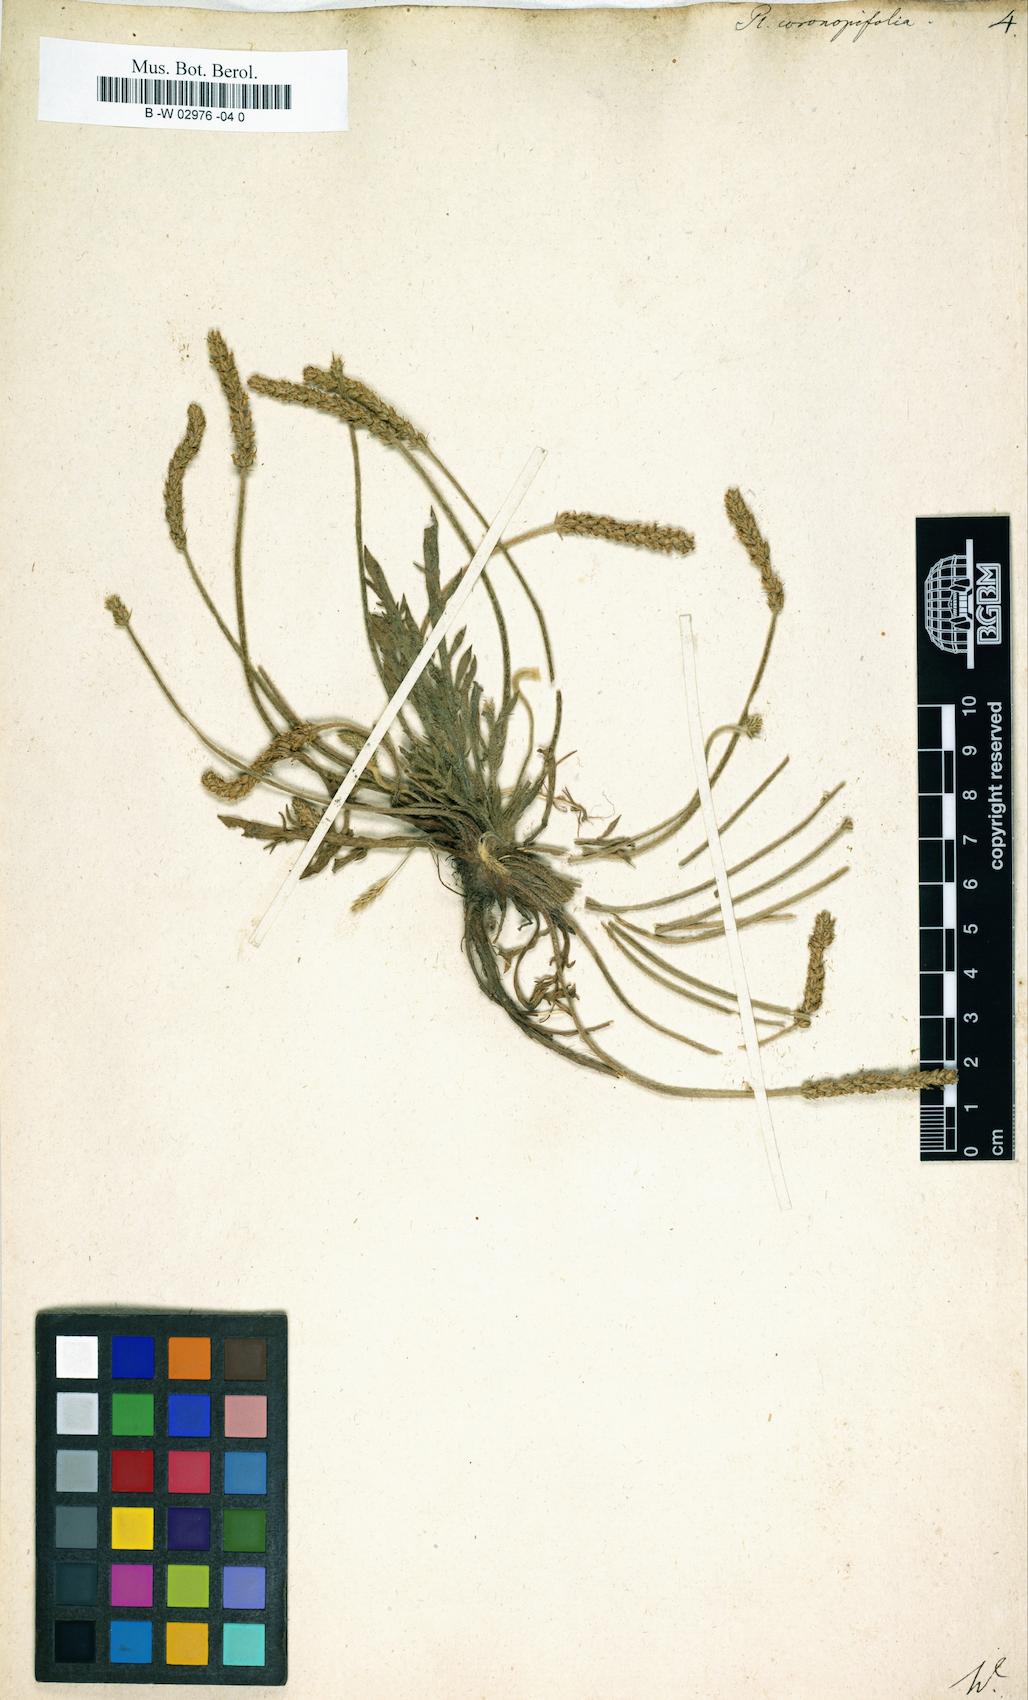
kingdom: Plantae
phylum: Tracheophyta
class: Magnoliopsida
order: Lamiales
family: Plantaginaceae
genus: Plantago
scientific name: Plantago
